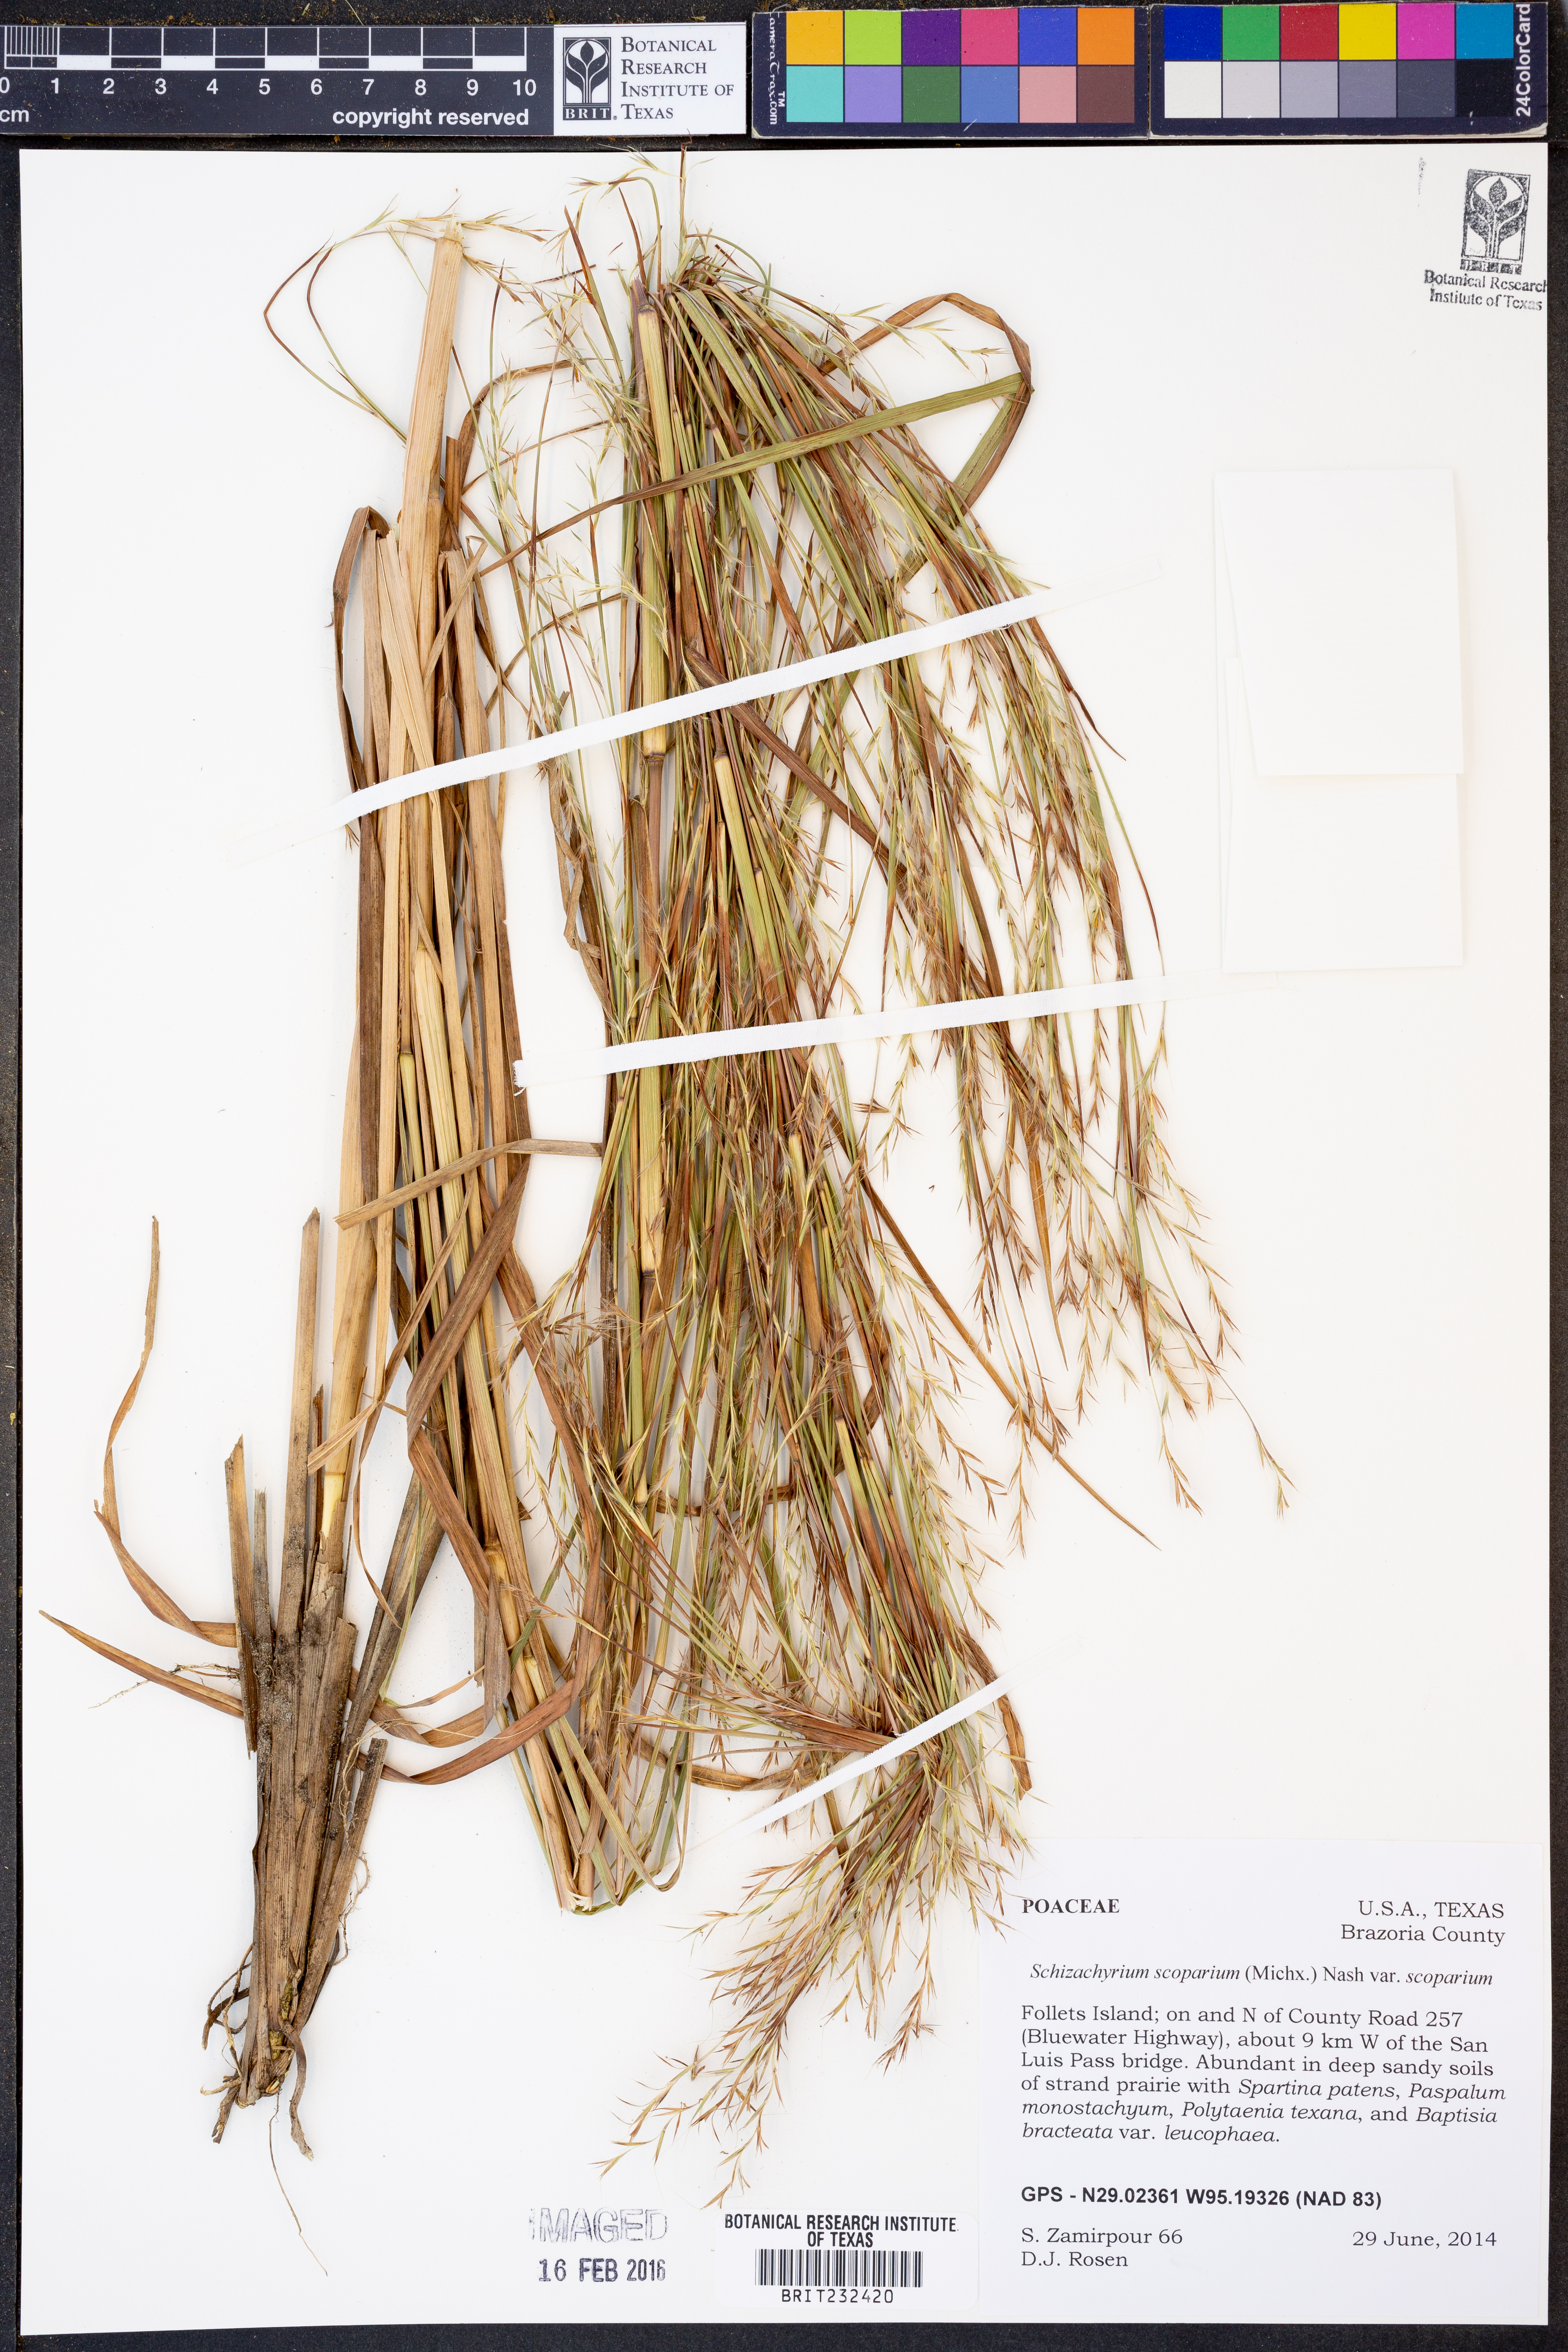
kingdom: Plantae
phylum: Tracheophyta
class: Liliopsida
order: Poales
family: Poaceae
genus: Schizachyrium
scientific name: Schizachyrium scoparium
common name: Little bluestem
